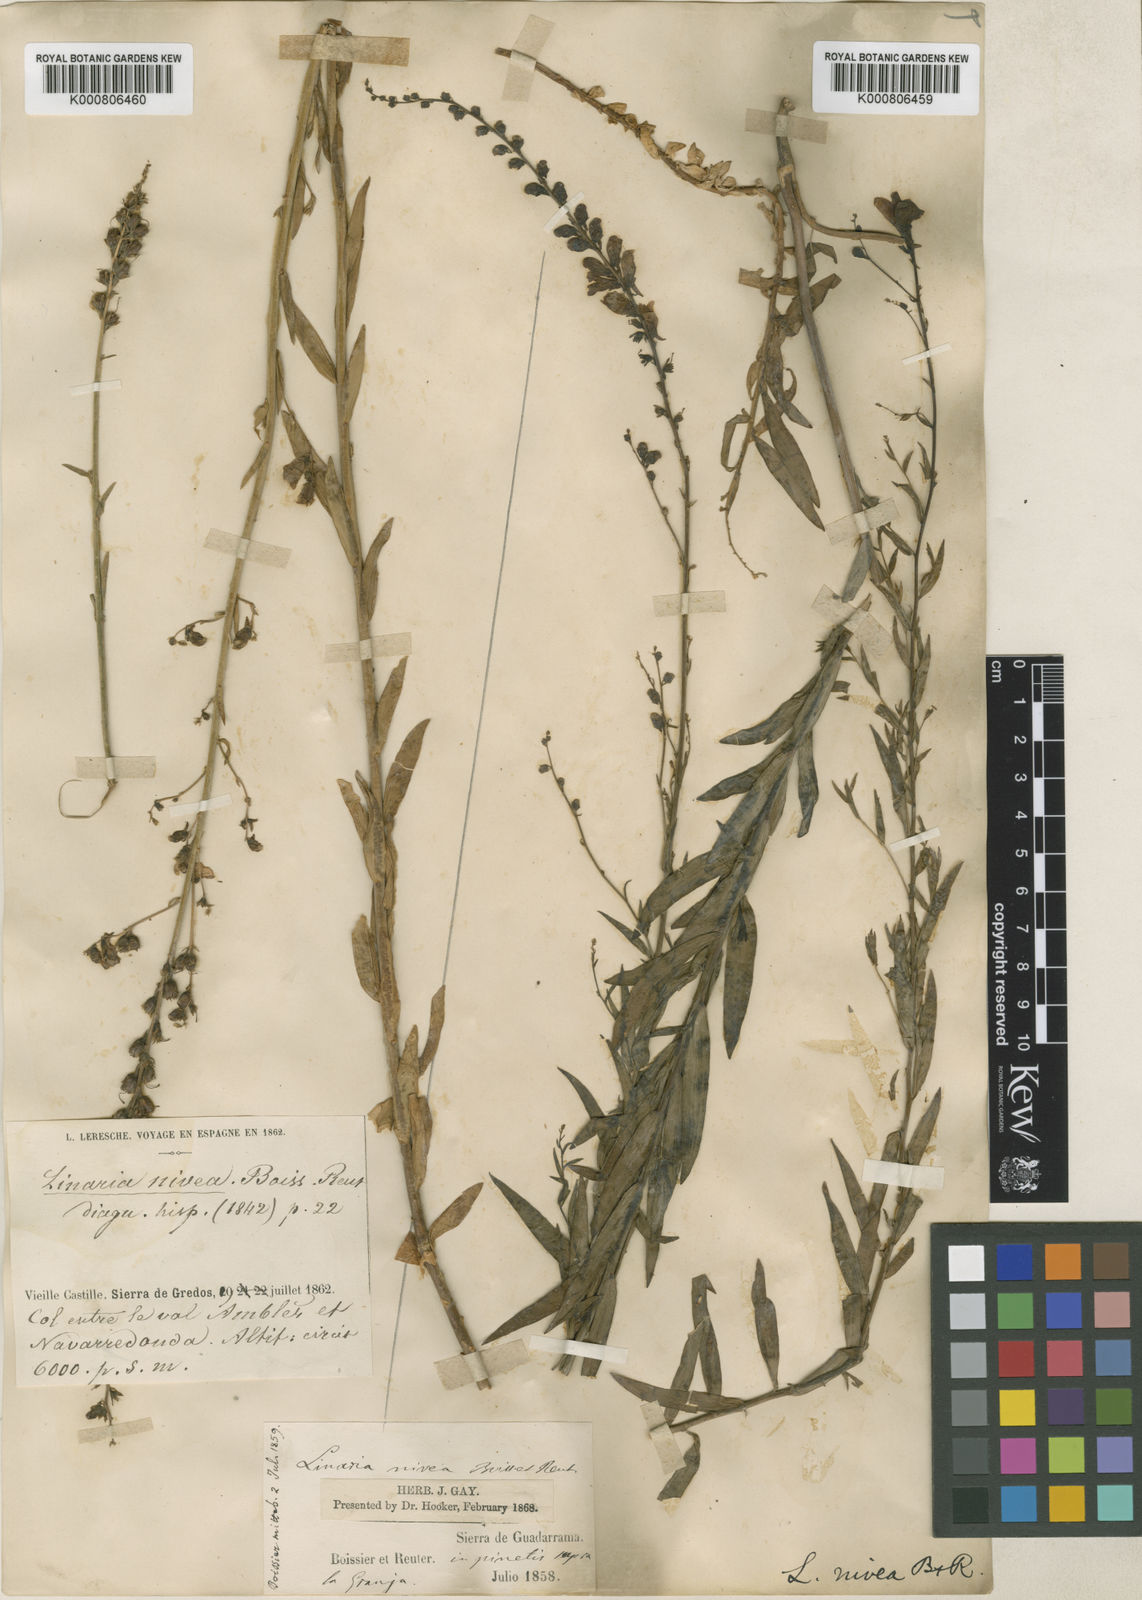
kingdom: Plantae
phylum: Tracheophyta
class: Magnoliopsida
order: Lamiales
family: Plantaginaceae
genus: Linaria
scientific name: Linaria nivea
